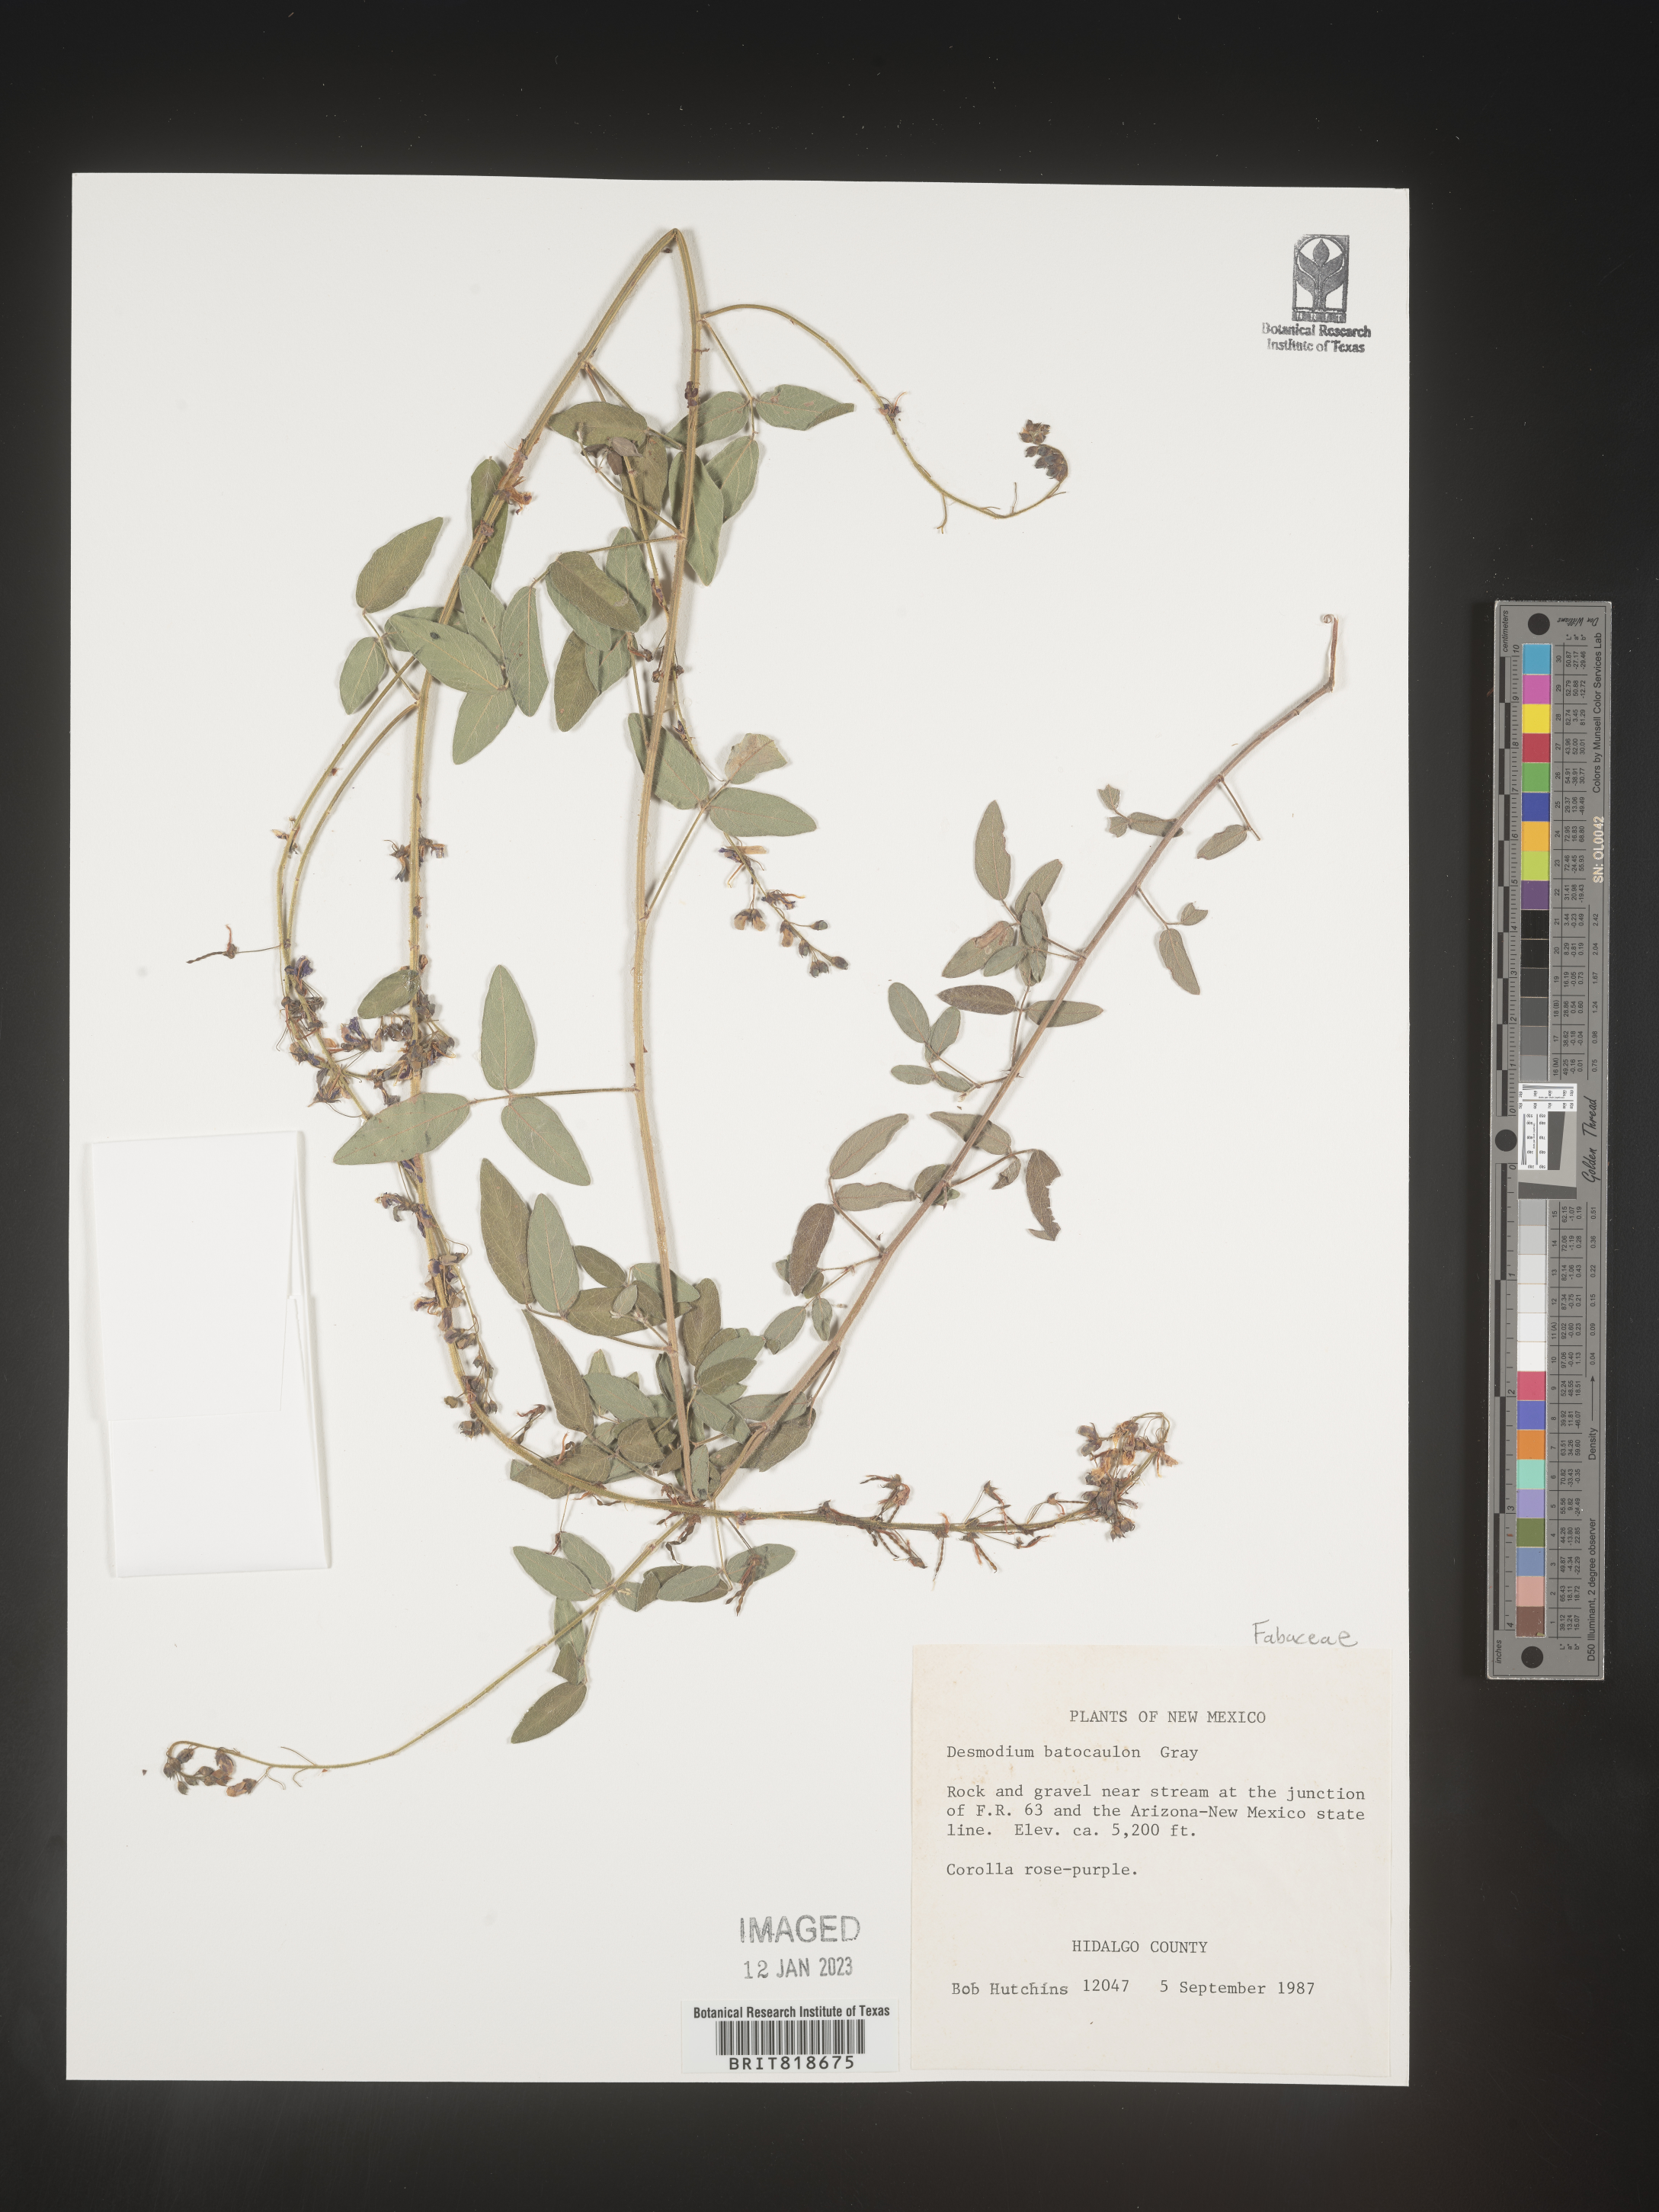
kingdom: Plantae
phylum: Tracheophyta
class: Magnoliopsida
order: Fabales
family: Fabaceae
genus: Desmodium
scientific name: Desmodium
